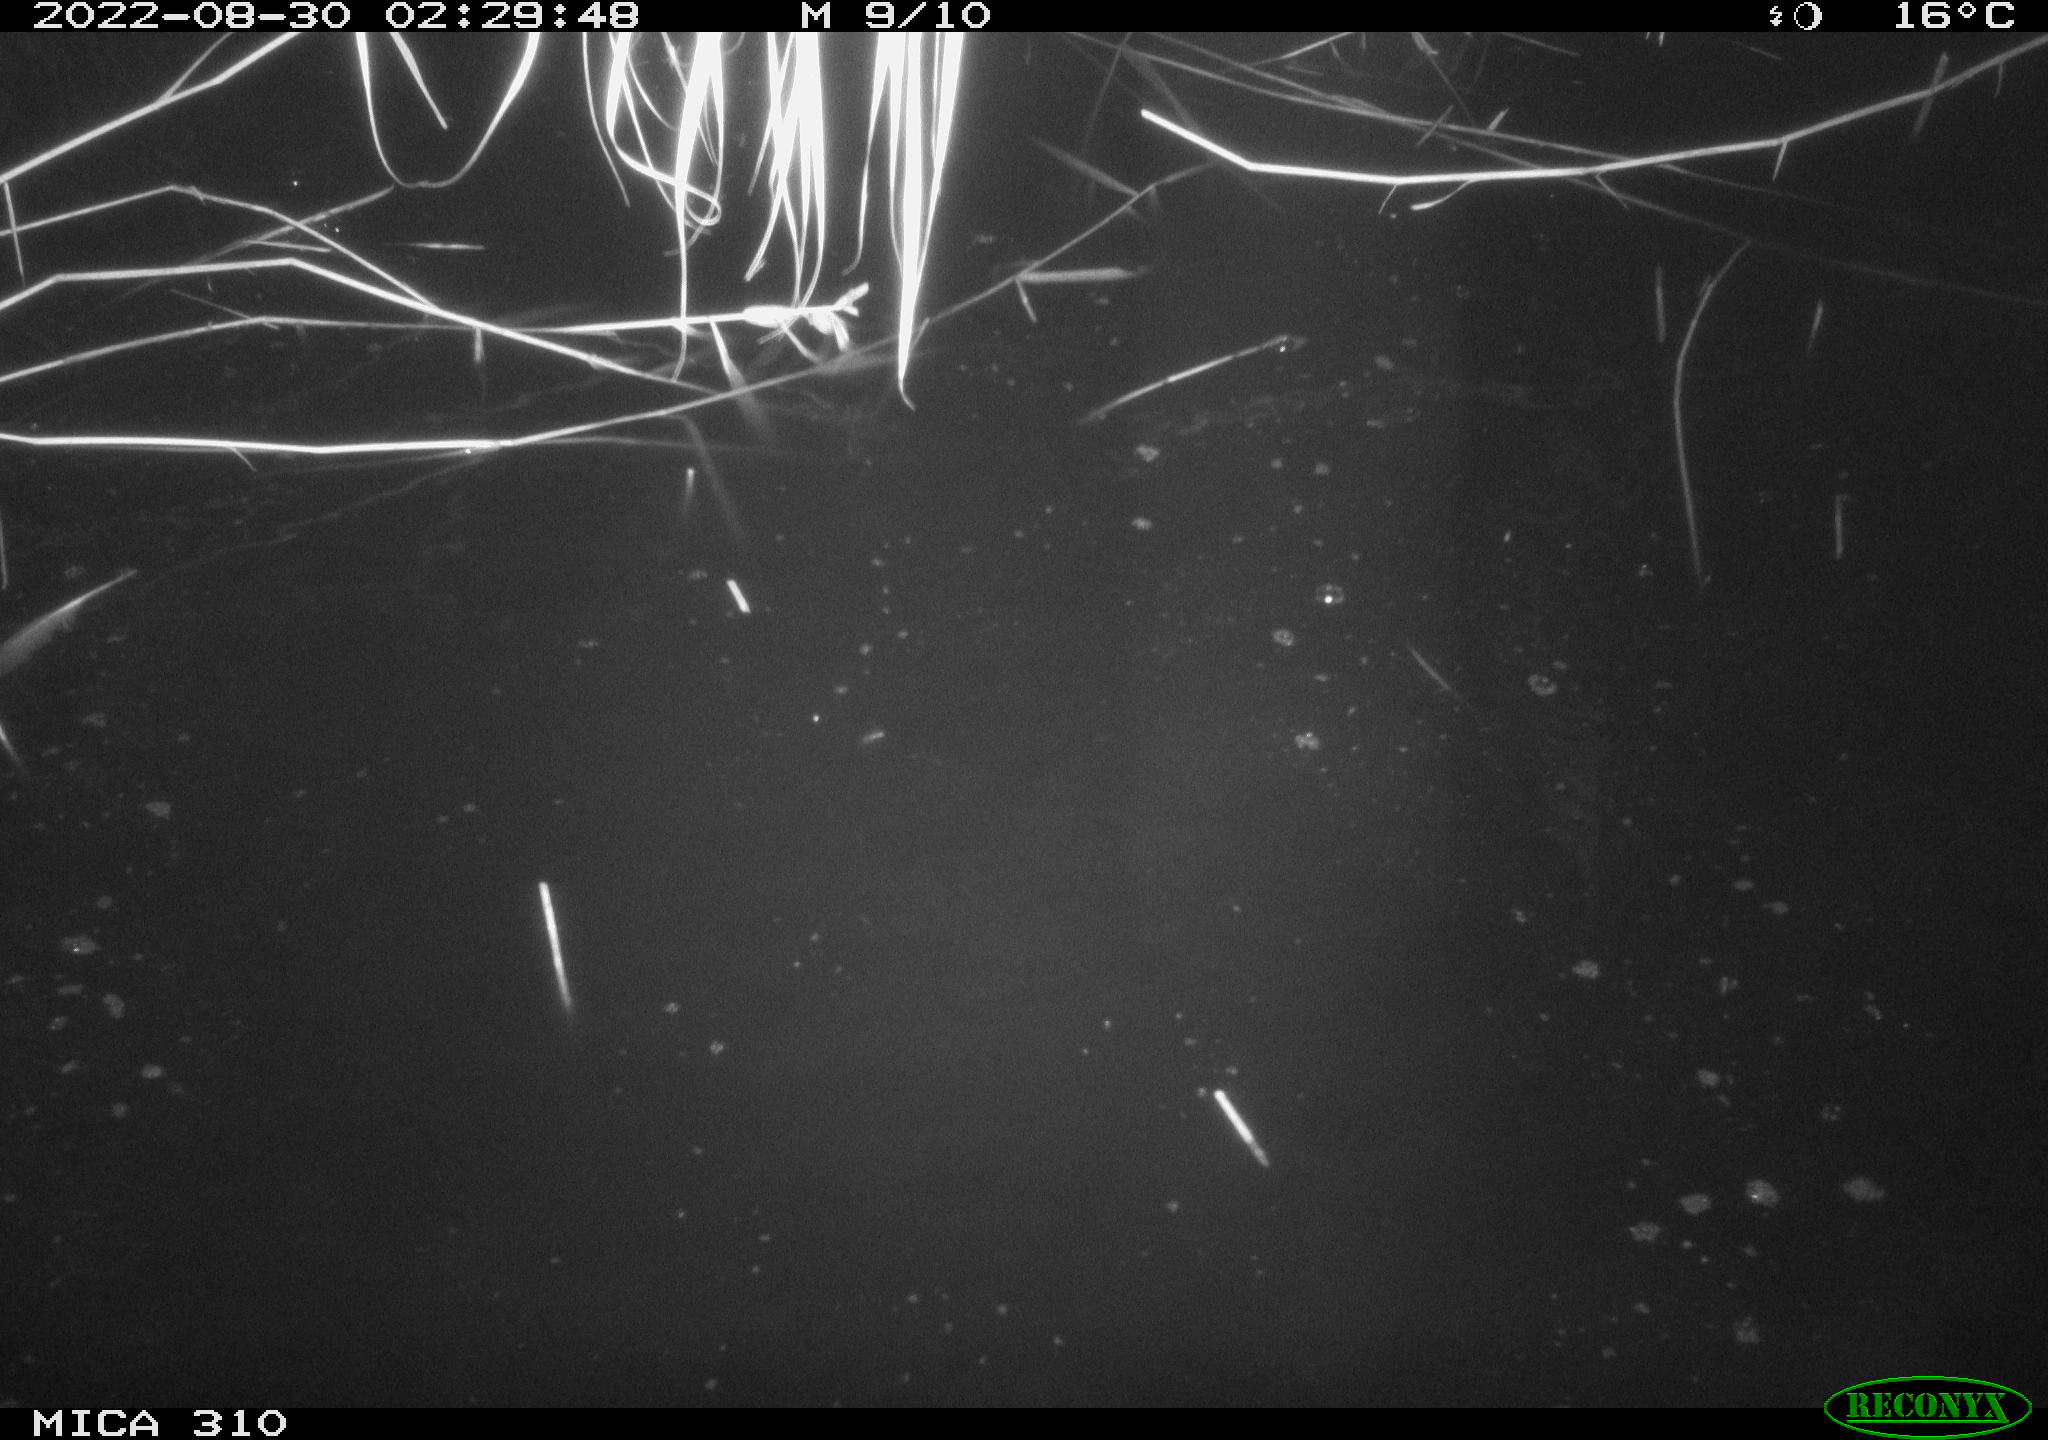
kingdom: Animalia
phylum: Chordata
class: Aves
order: Anseriformes
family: Anatidae
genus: Anas
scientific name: Anas platyrhynchos
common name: Mallard
